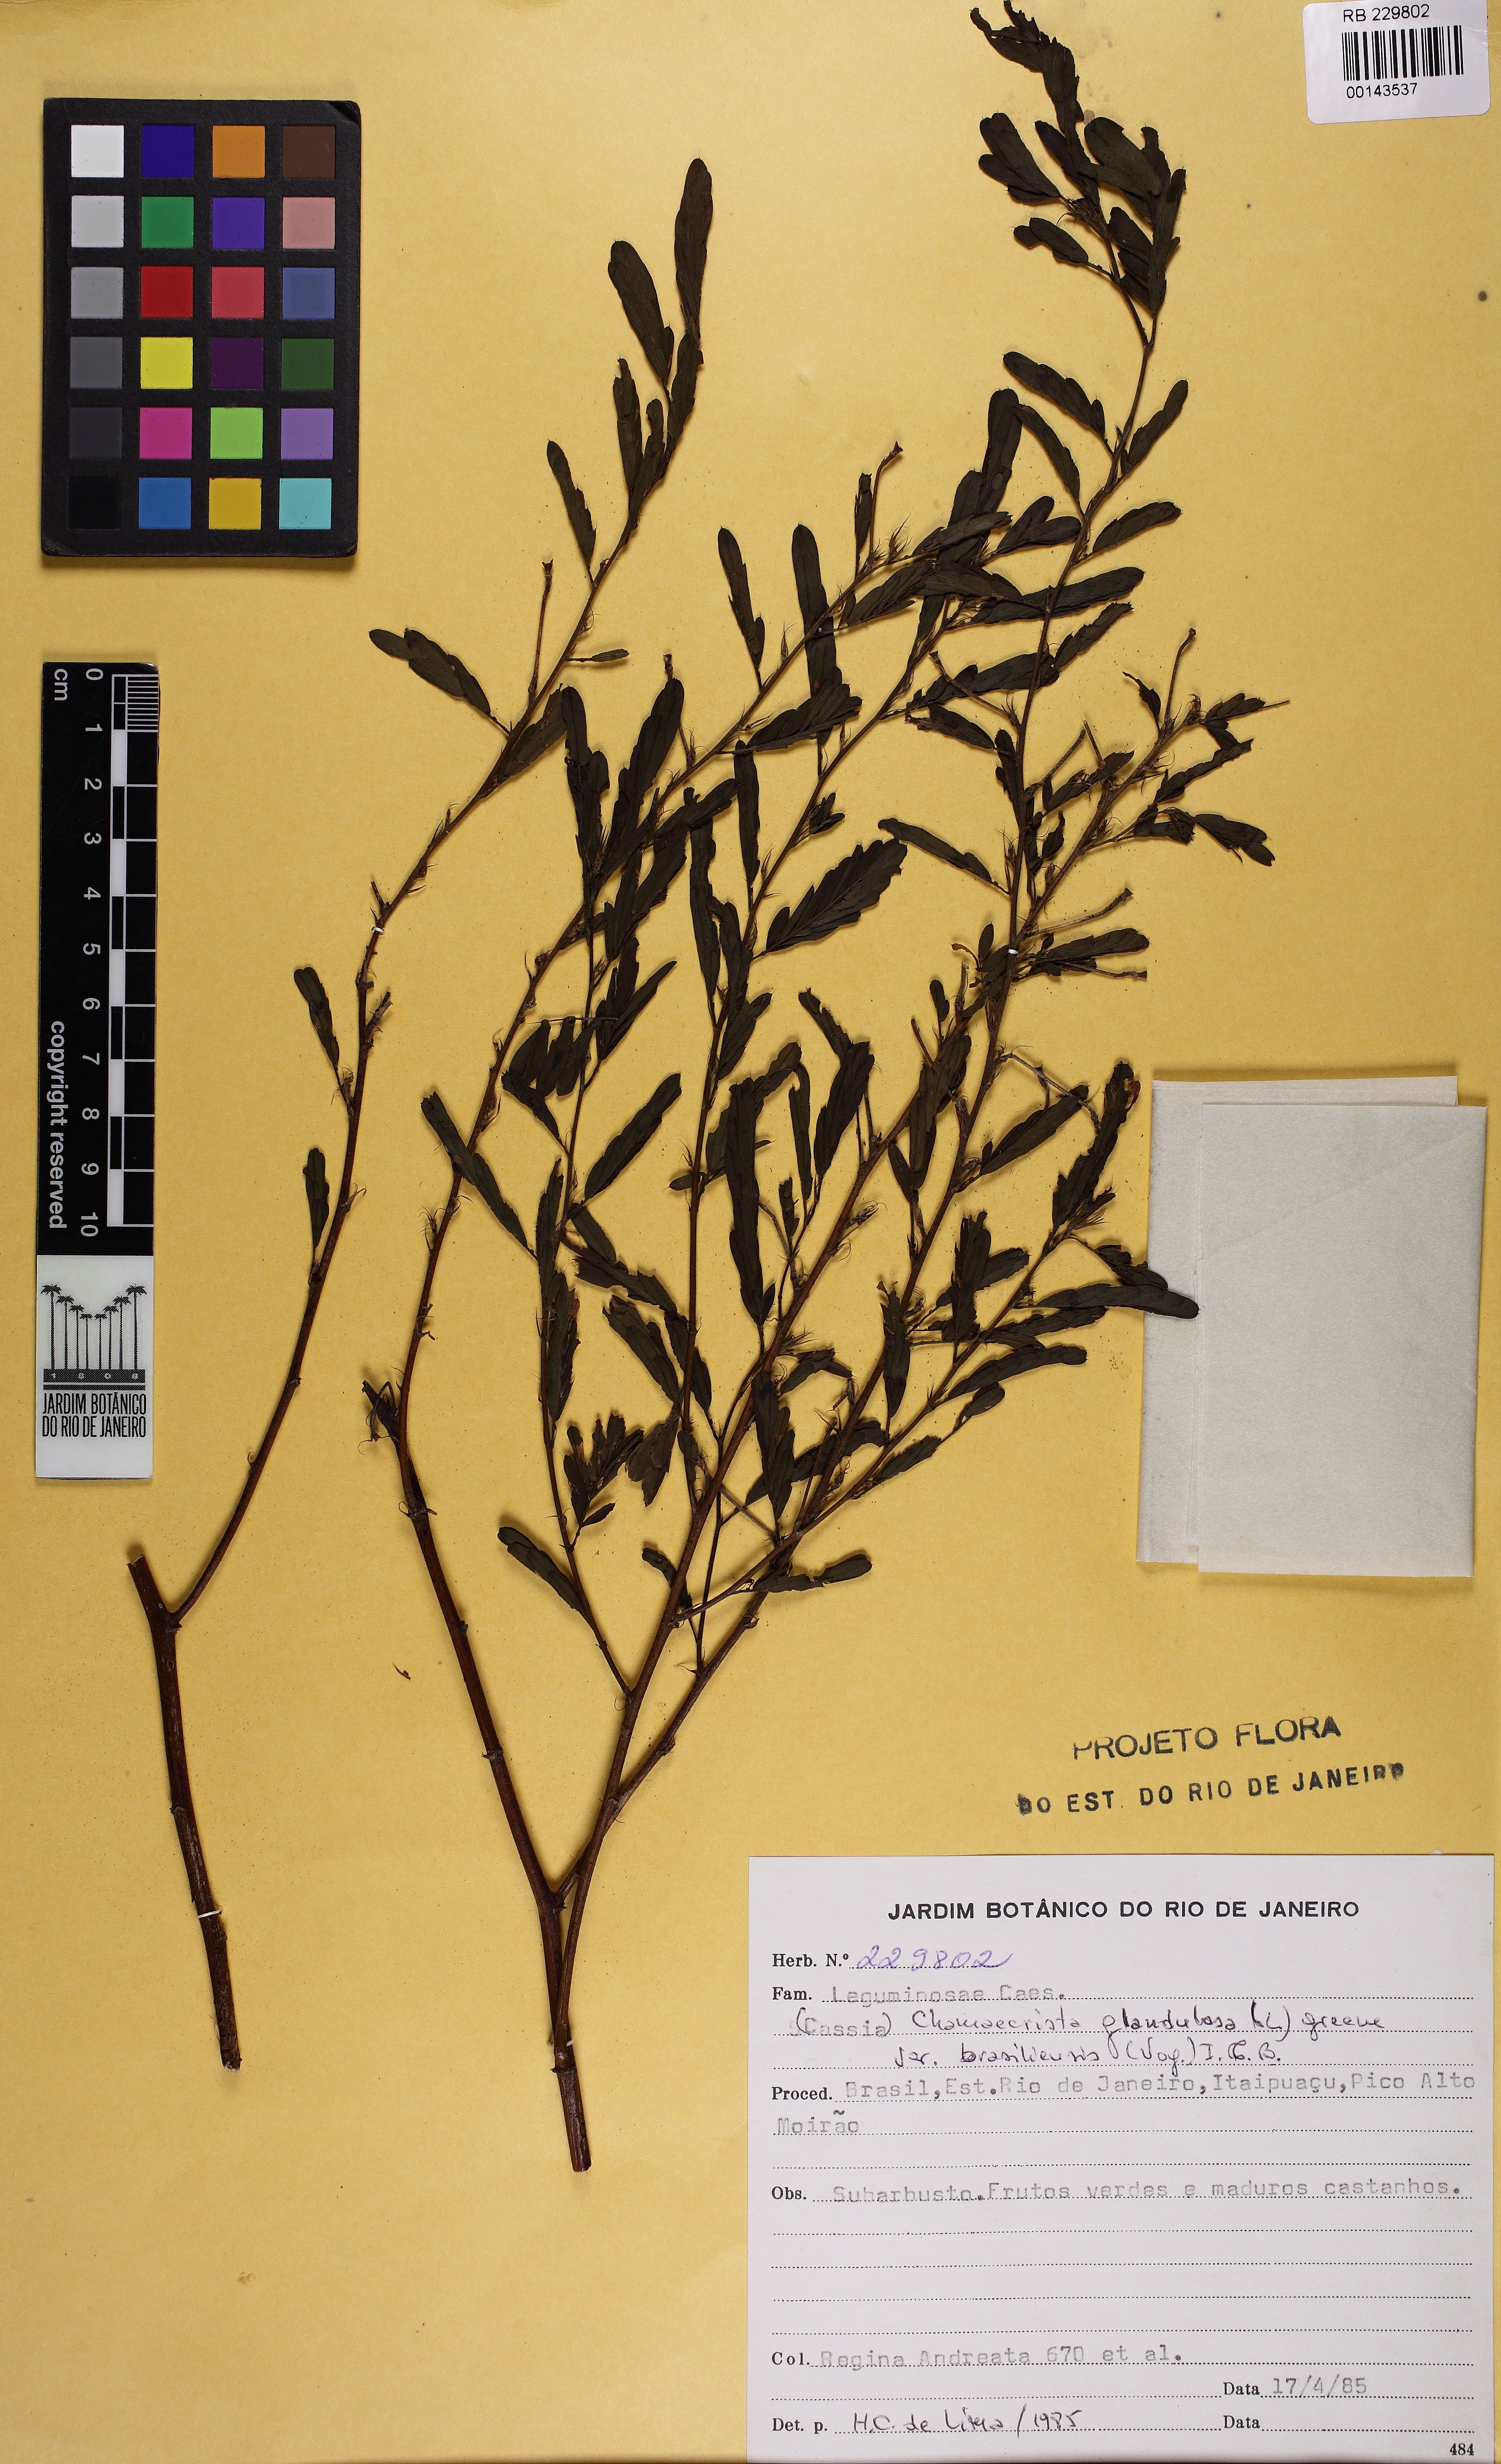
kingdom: Plantae
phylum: Tracheophyta
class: Magnoliopsida
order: Fabales
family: Fabaceae
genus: Chamaecrista
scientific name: Chamaecrista glandulosa
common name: Wild peas
